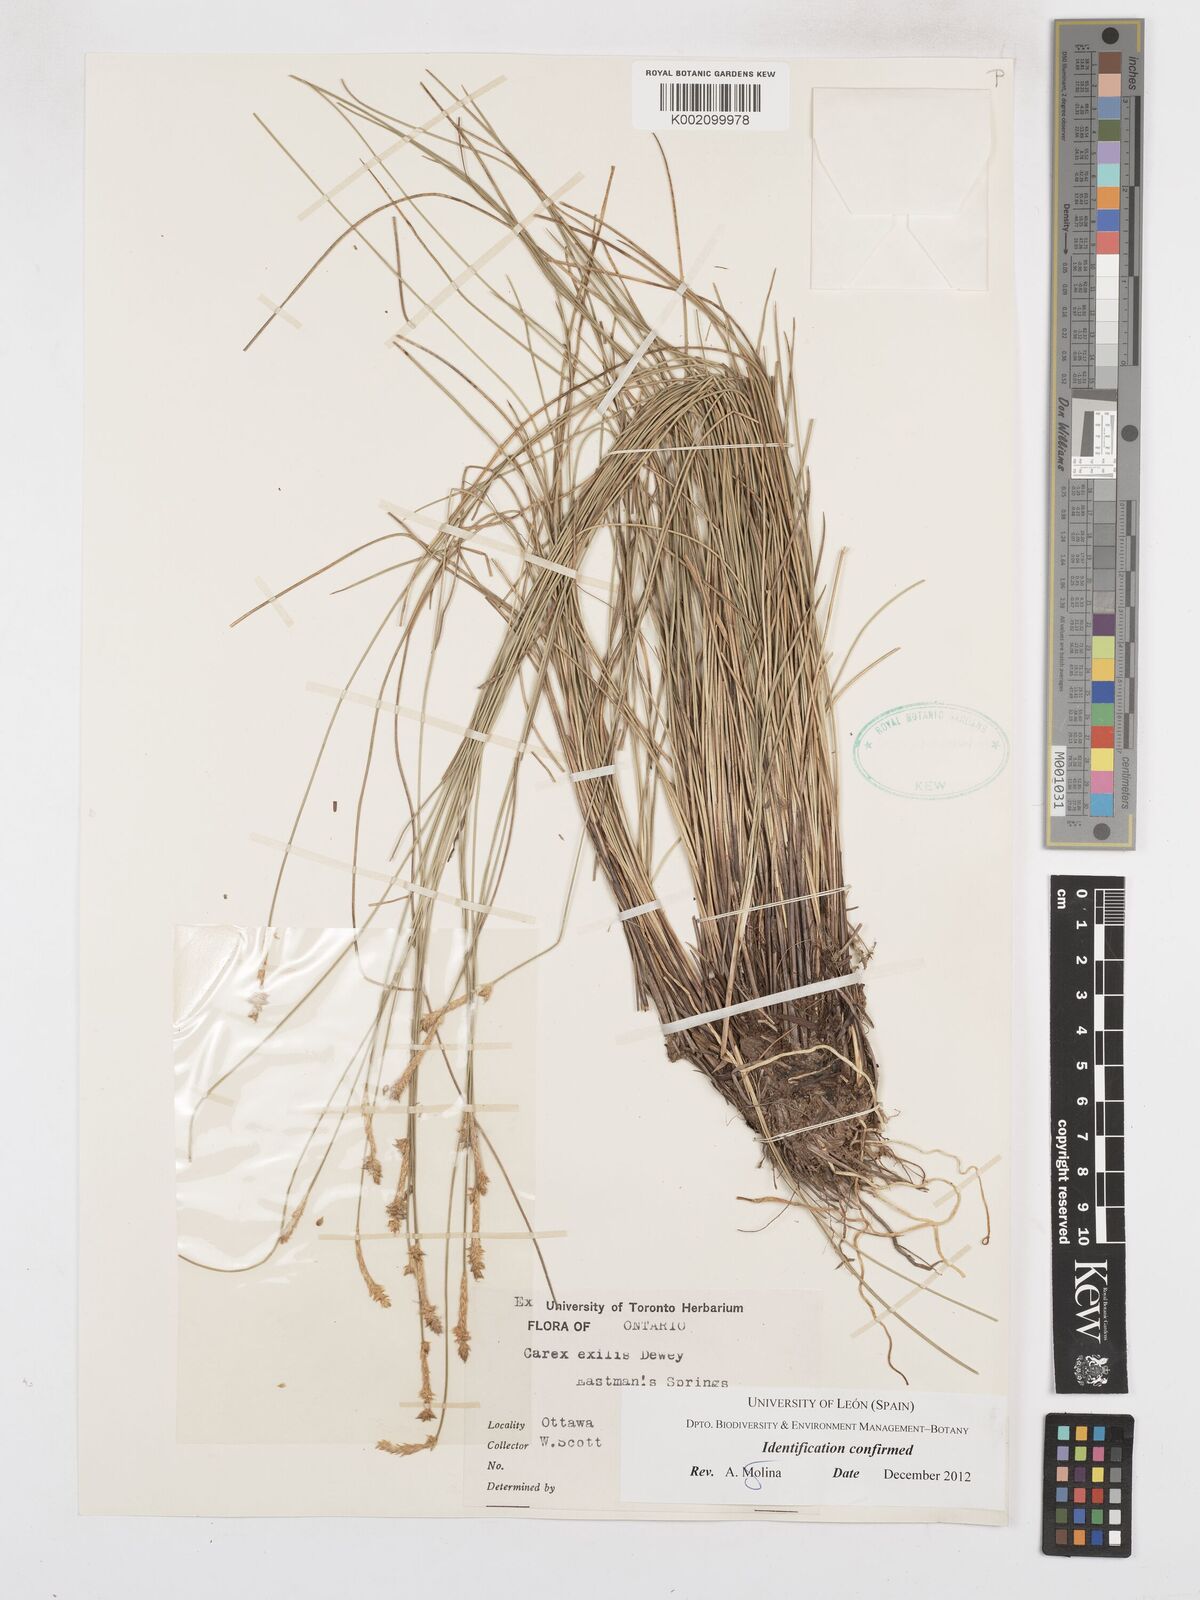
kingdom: Plantae
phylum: Tracheophyta
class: Liliopsida
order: Poales
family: Cyperaceae
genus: Carex
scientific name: Carex exilis
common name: Coastal sedge
